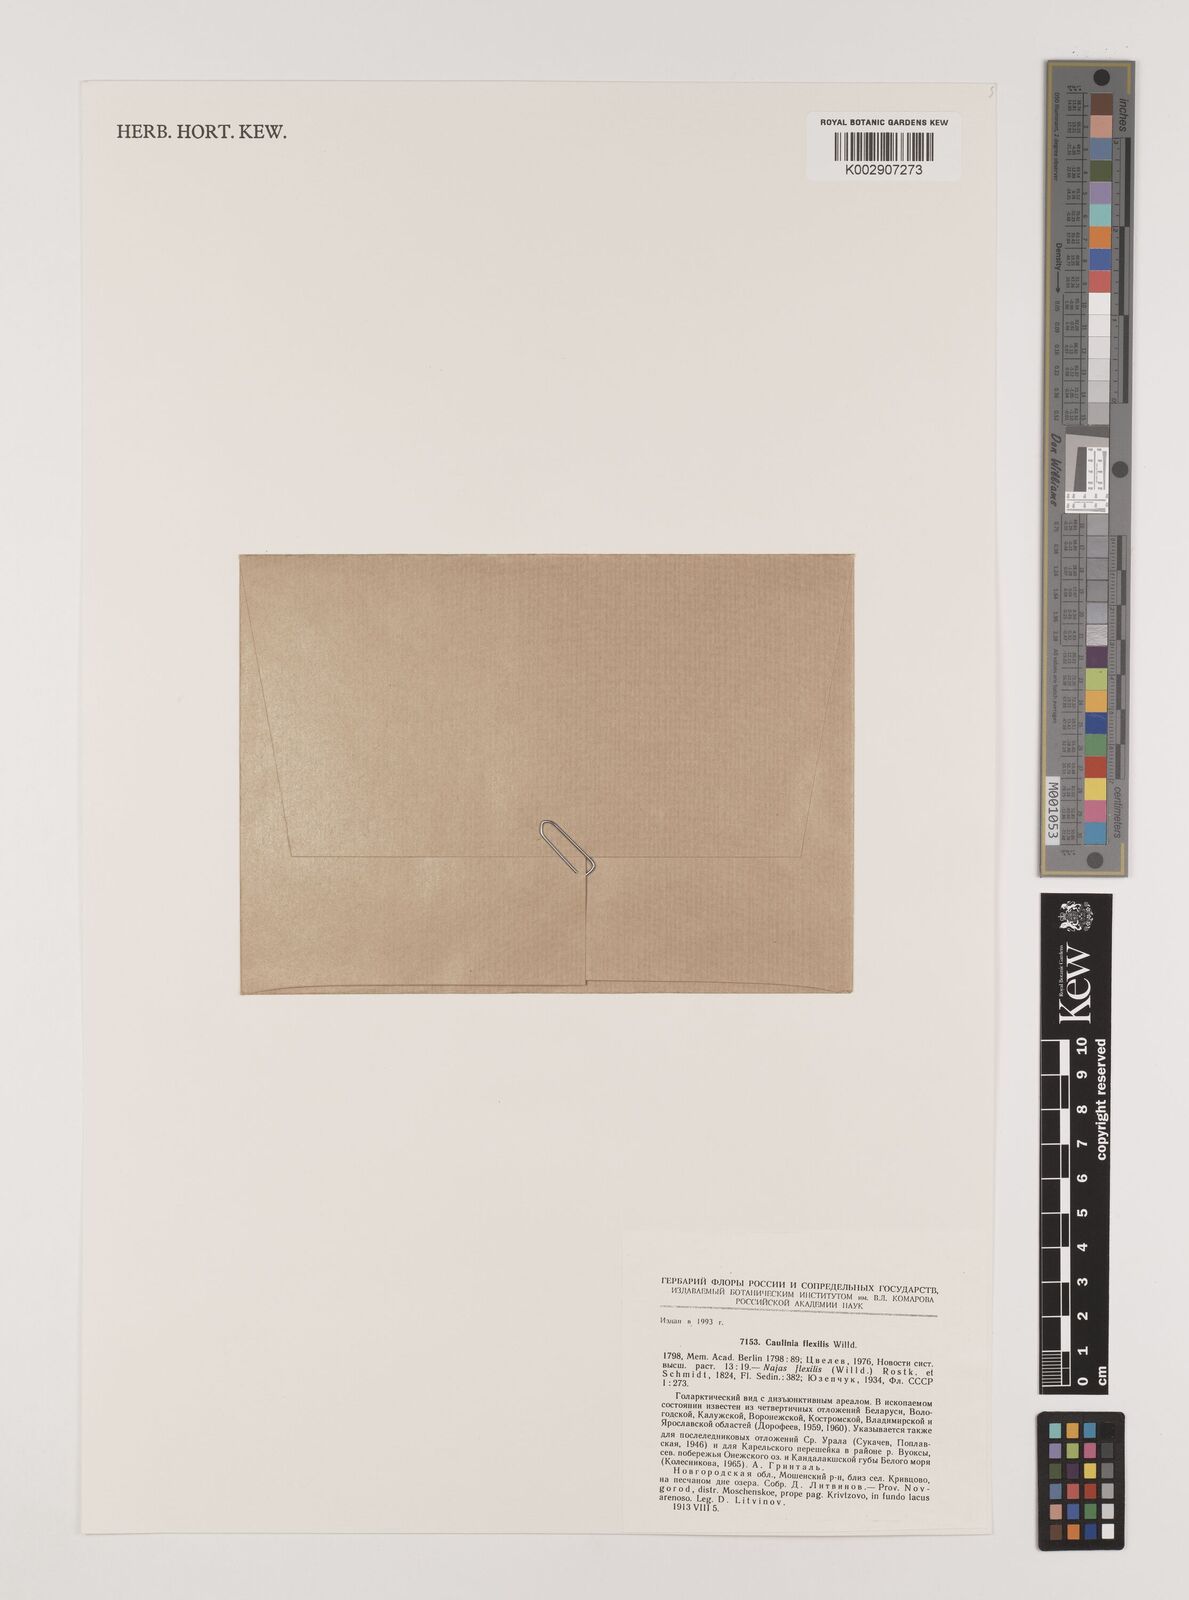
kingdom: Plantae
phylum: Tracheophyta
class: Liliopsida
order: Alismatales
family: Hydrocharitaceae
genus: Najas
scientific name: Najas flexilis
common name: Slender naiad
